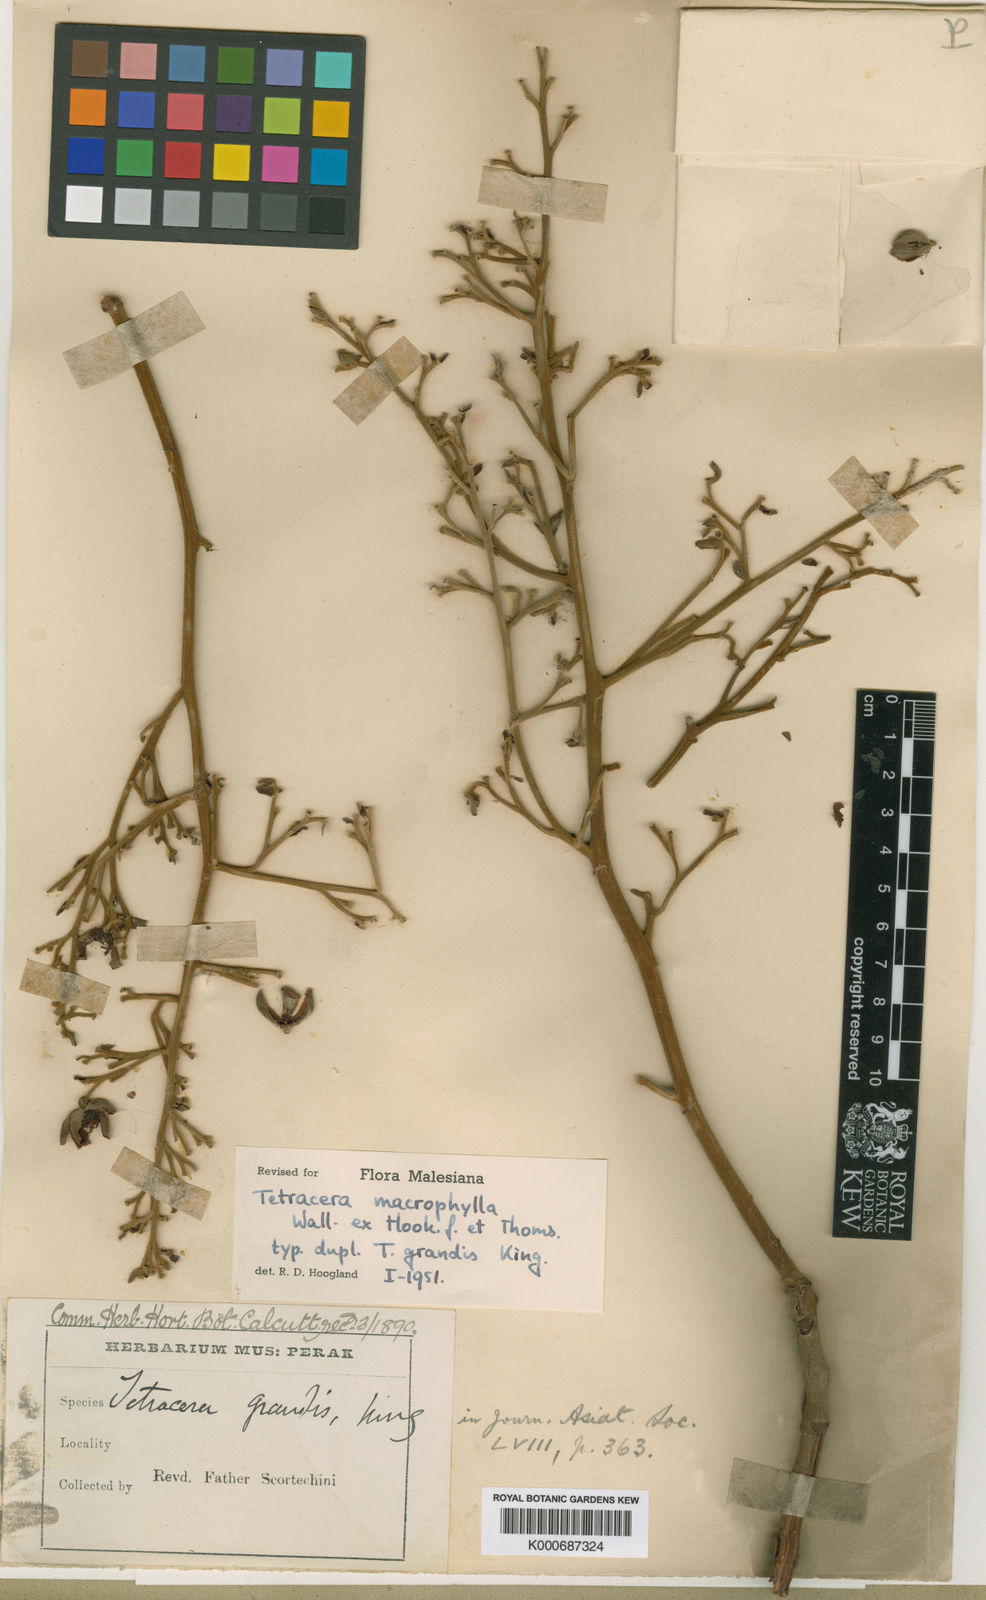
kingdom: Plantae
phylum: Tracheophyta
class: Magnoliopsida
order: Dilleniales
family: Dilleniaceae
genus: Tetracera
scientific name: Tetracera macrophylla
